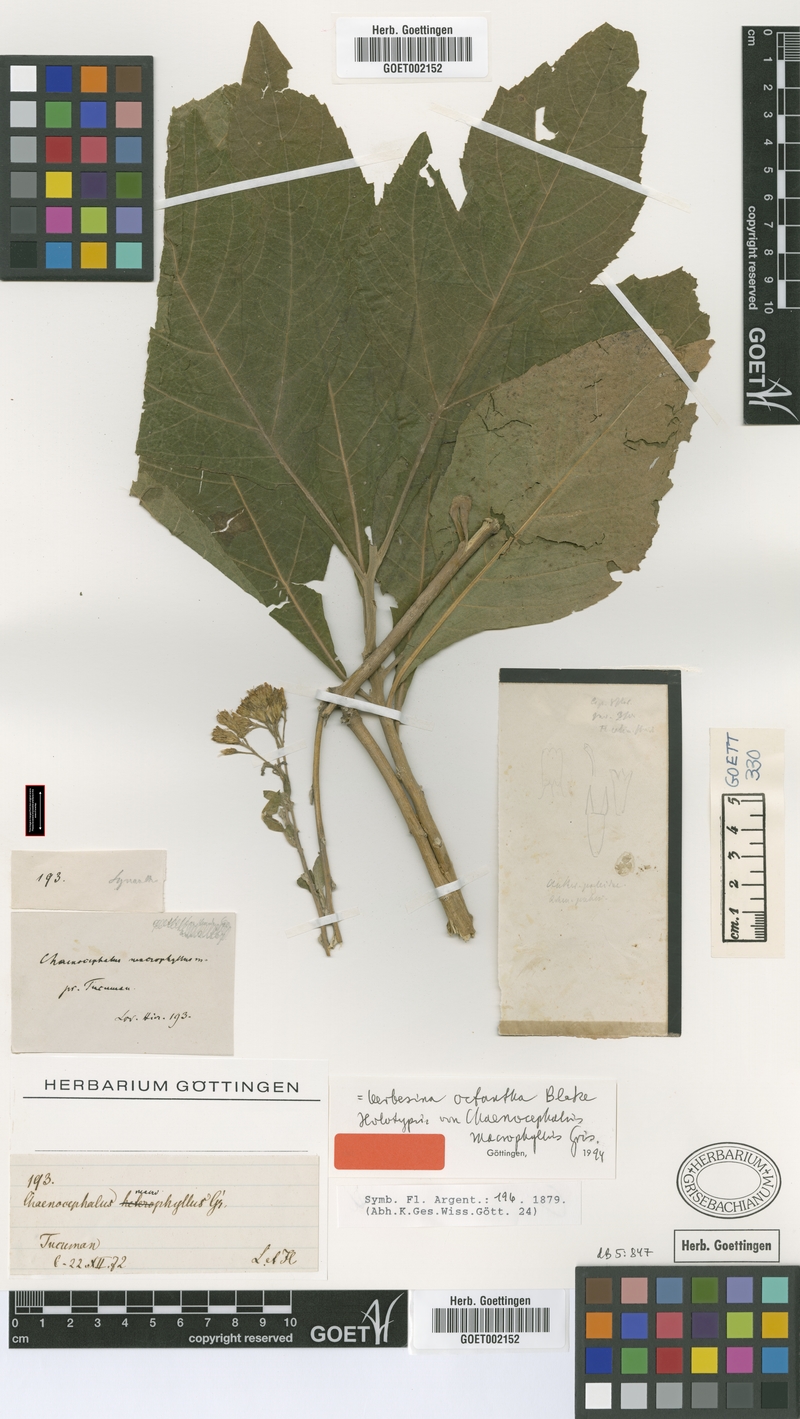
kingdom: Plantae
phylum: Tracheophyta
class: Magnoliopsida
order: Asterales
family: Asteraceae
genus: Verbesina
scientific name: Verbesina suncho
